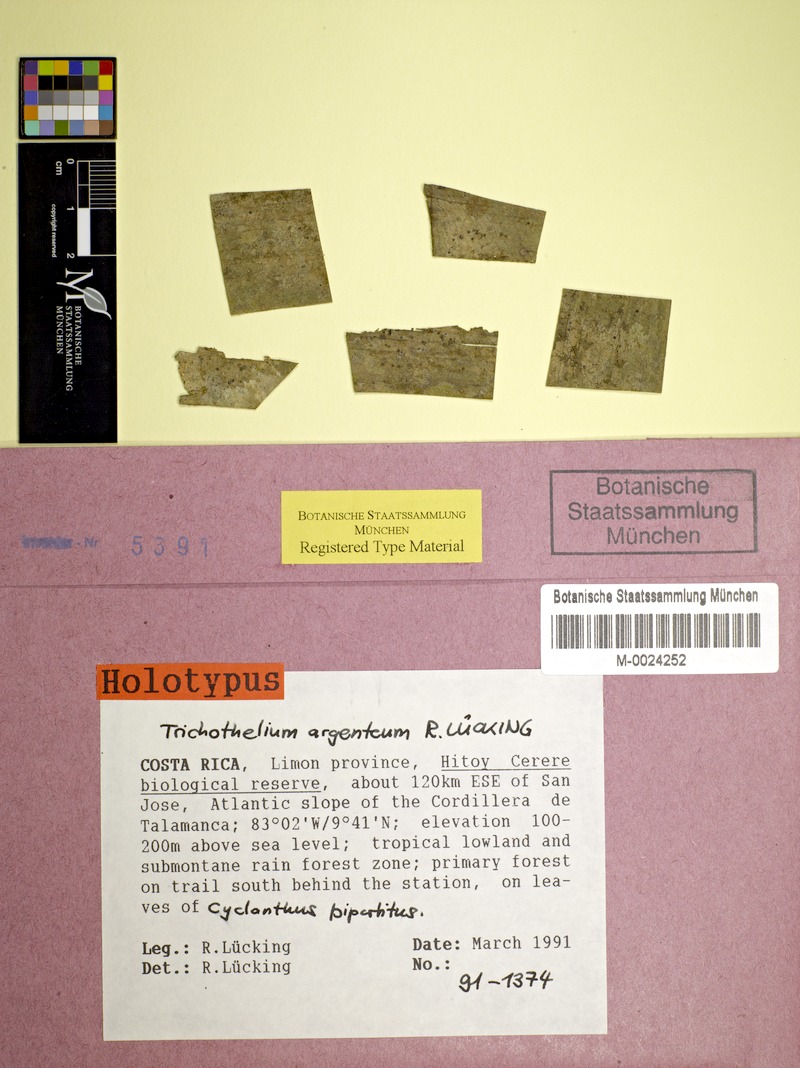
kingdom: Fungi
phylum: Ascomycota
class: Lecanoromycetes
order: Ostropales
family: Porinaceae
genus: Trichothelium
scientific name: Trichothelium argenteum
